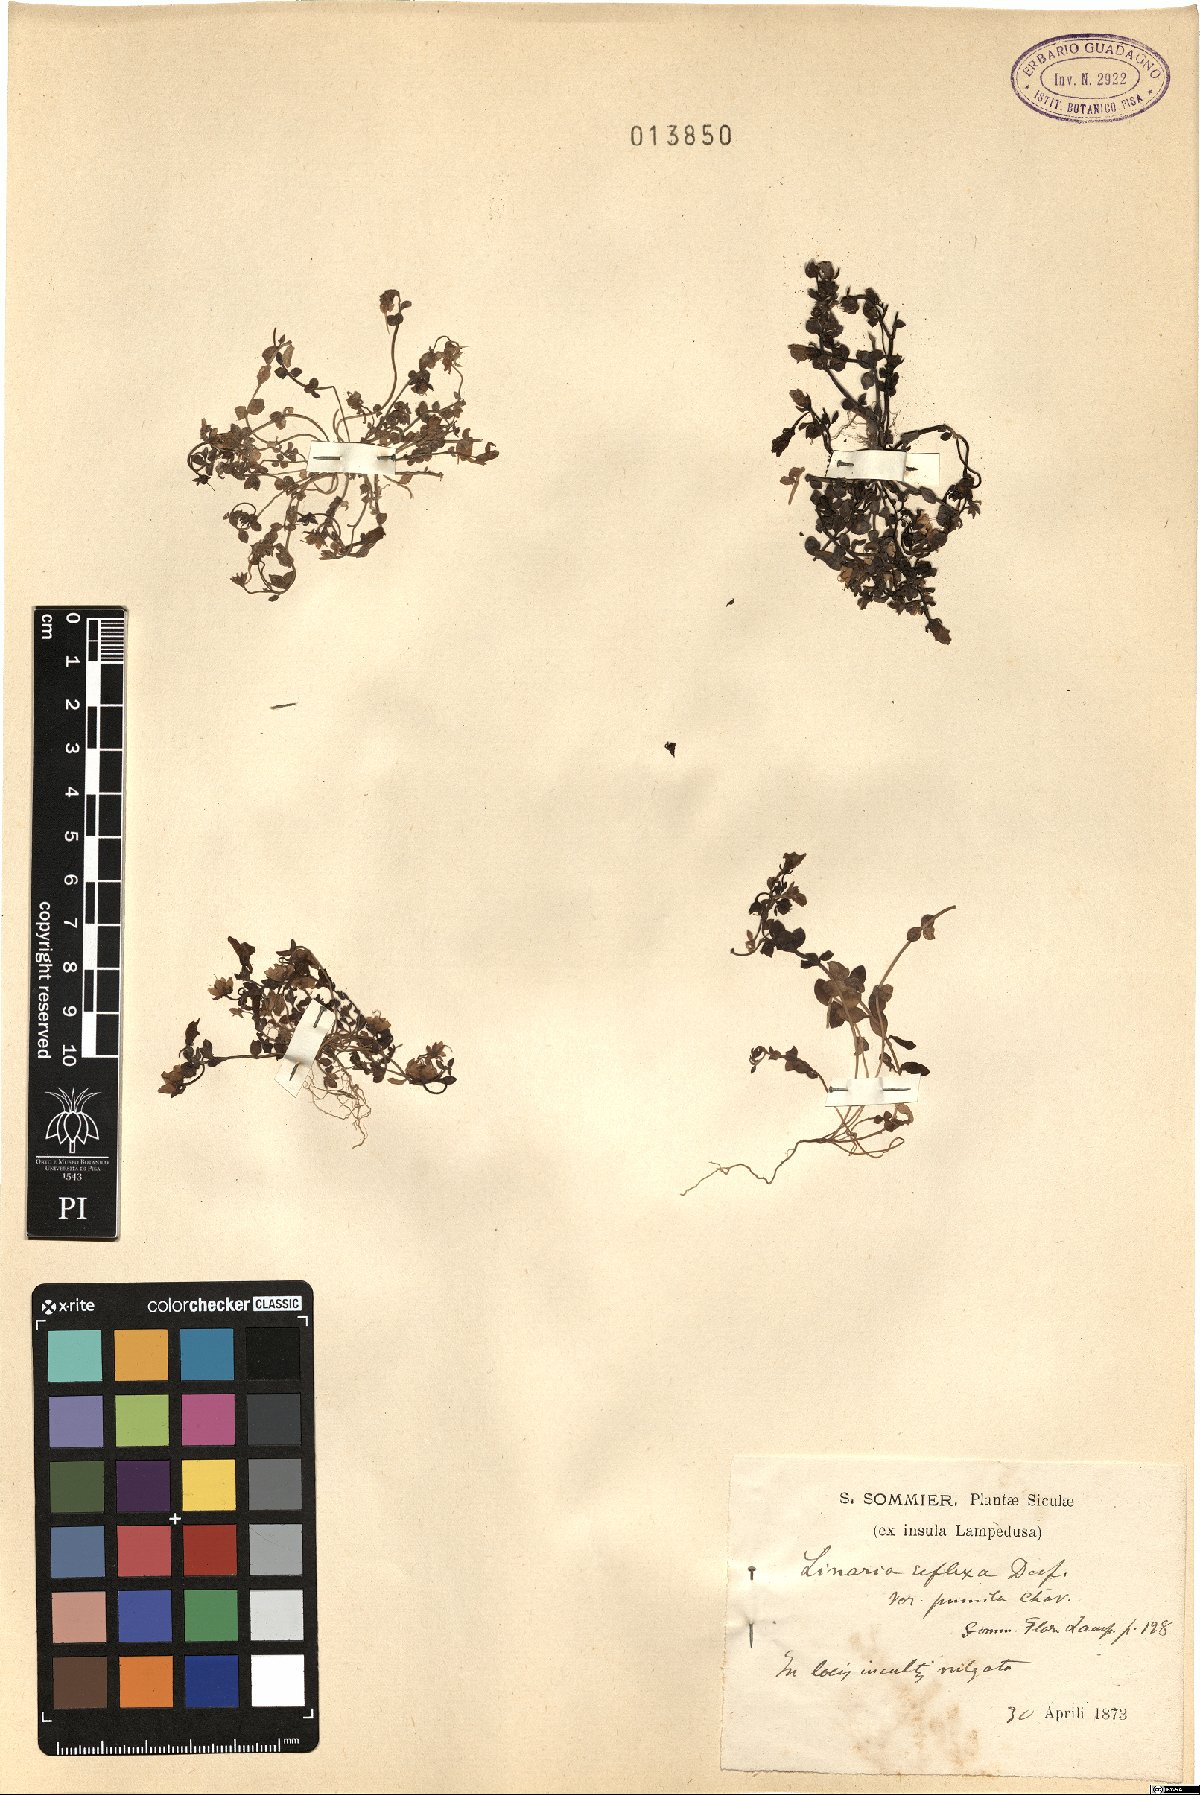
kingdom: Plantae
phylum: Tracheophyta
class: Magnoliopsida
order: Lamiales
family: Plantaginaceae
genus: Linaria
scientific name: Linaria reflexa
